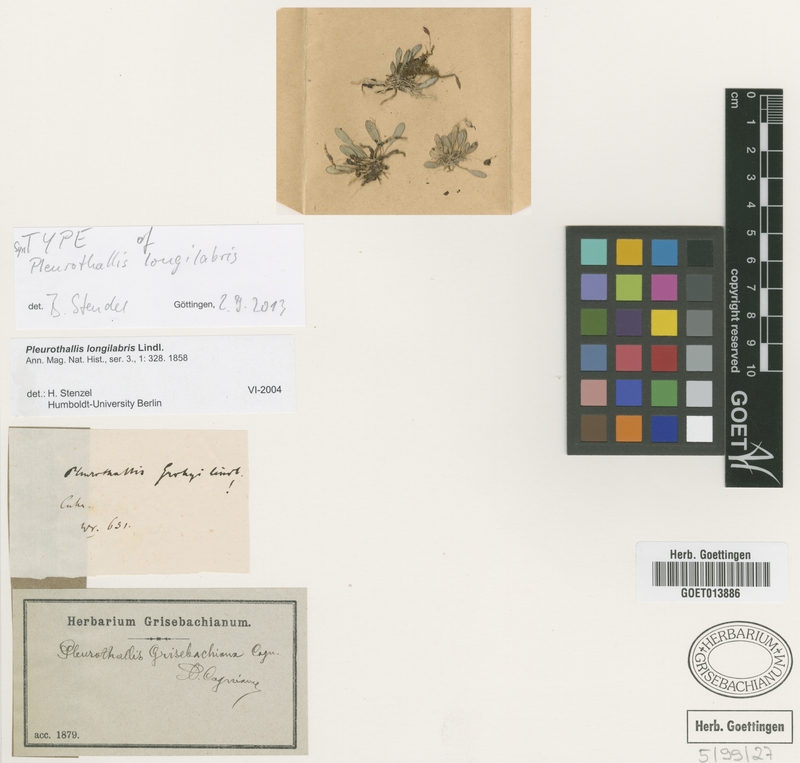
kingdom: Plantae
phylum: Tracheophyta
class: Liliopsida
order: Asparagales
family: Orchidaceae
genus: Muscarella
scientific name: Muscarella longilabris
